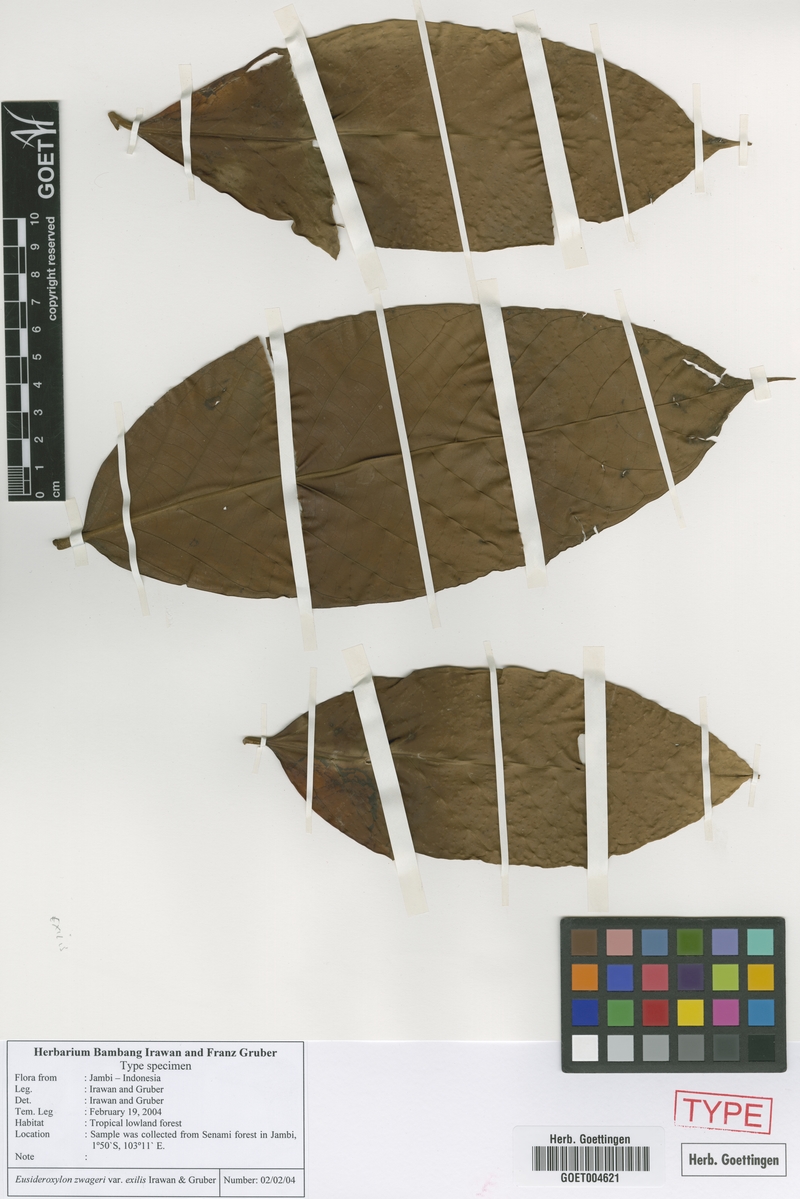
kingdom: Plantae
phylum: Tracheophyta
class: Magnoliopsida
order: Laurales
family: Lauraceae
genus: Eusideroxylon
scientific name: Eusideroxylon zwageri
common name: Borneo ironwood
